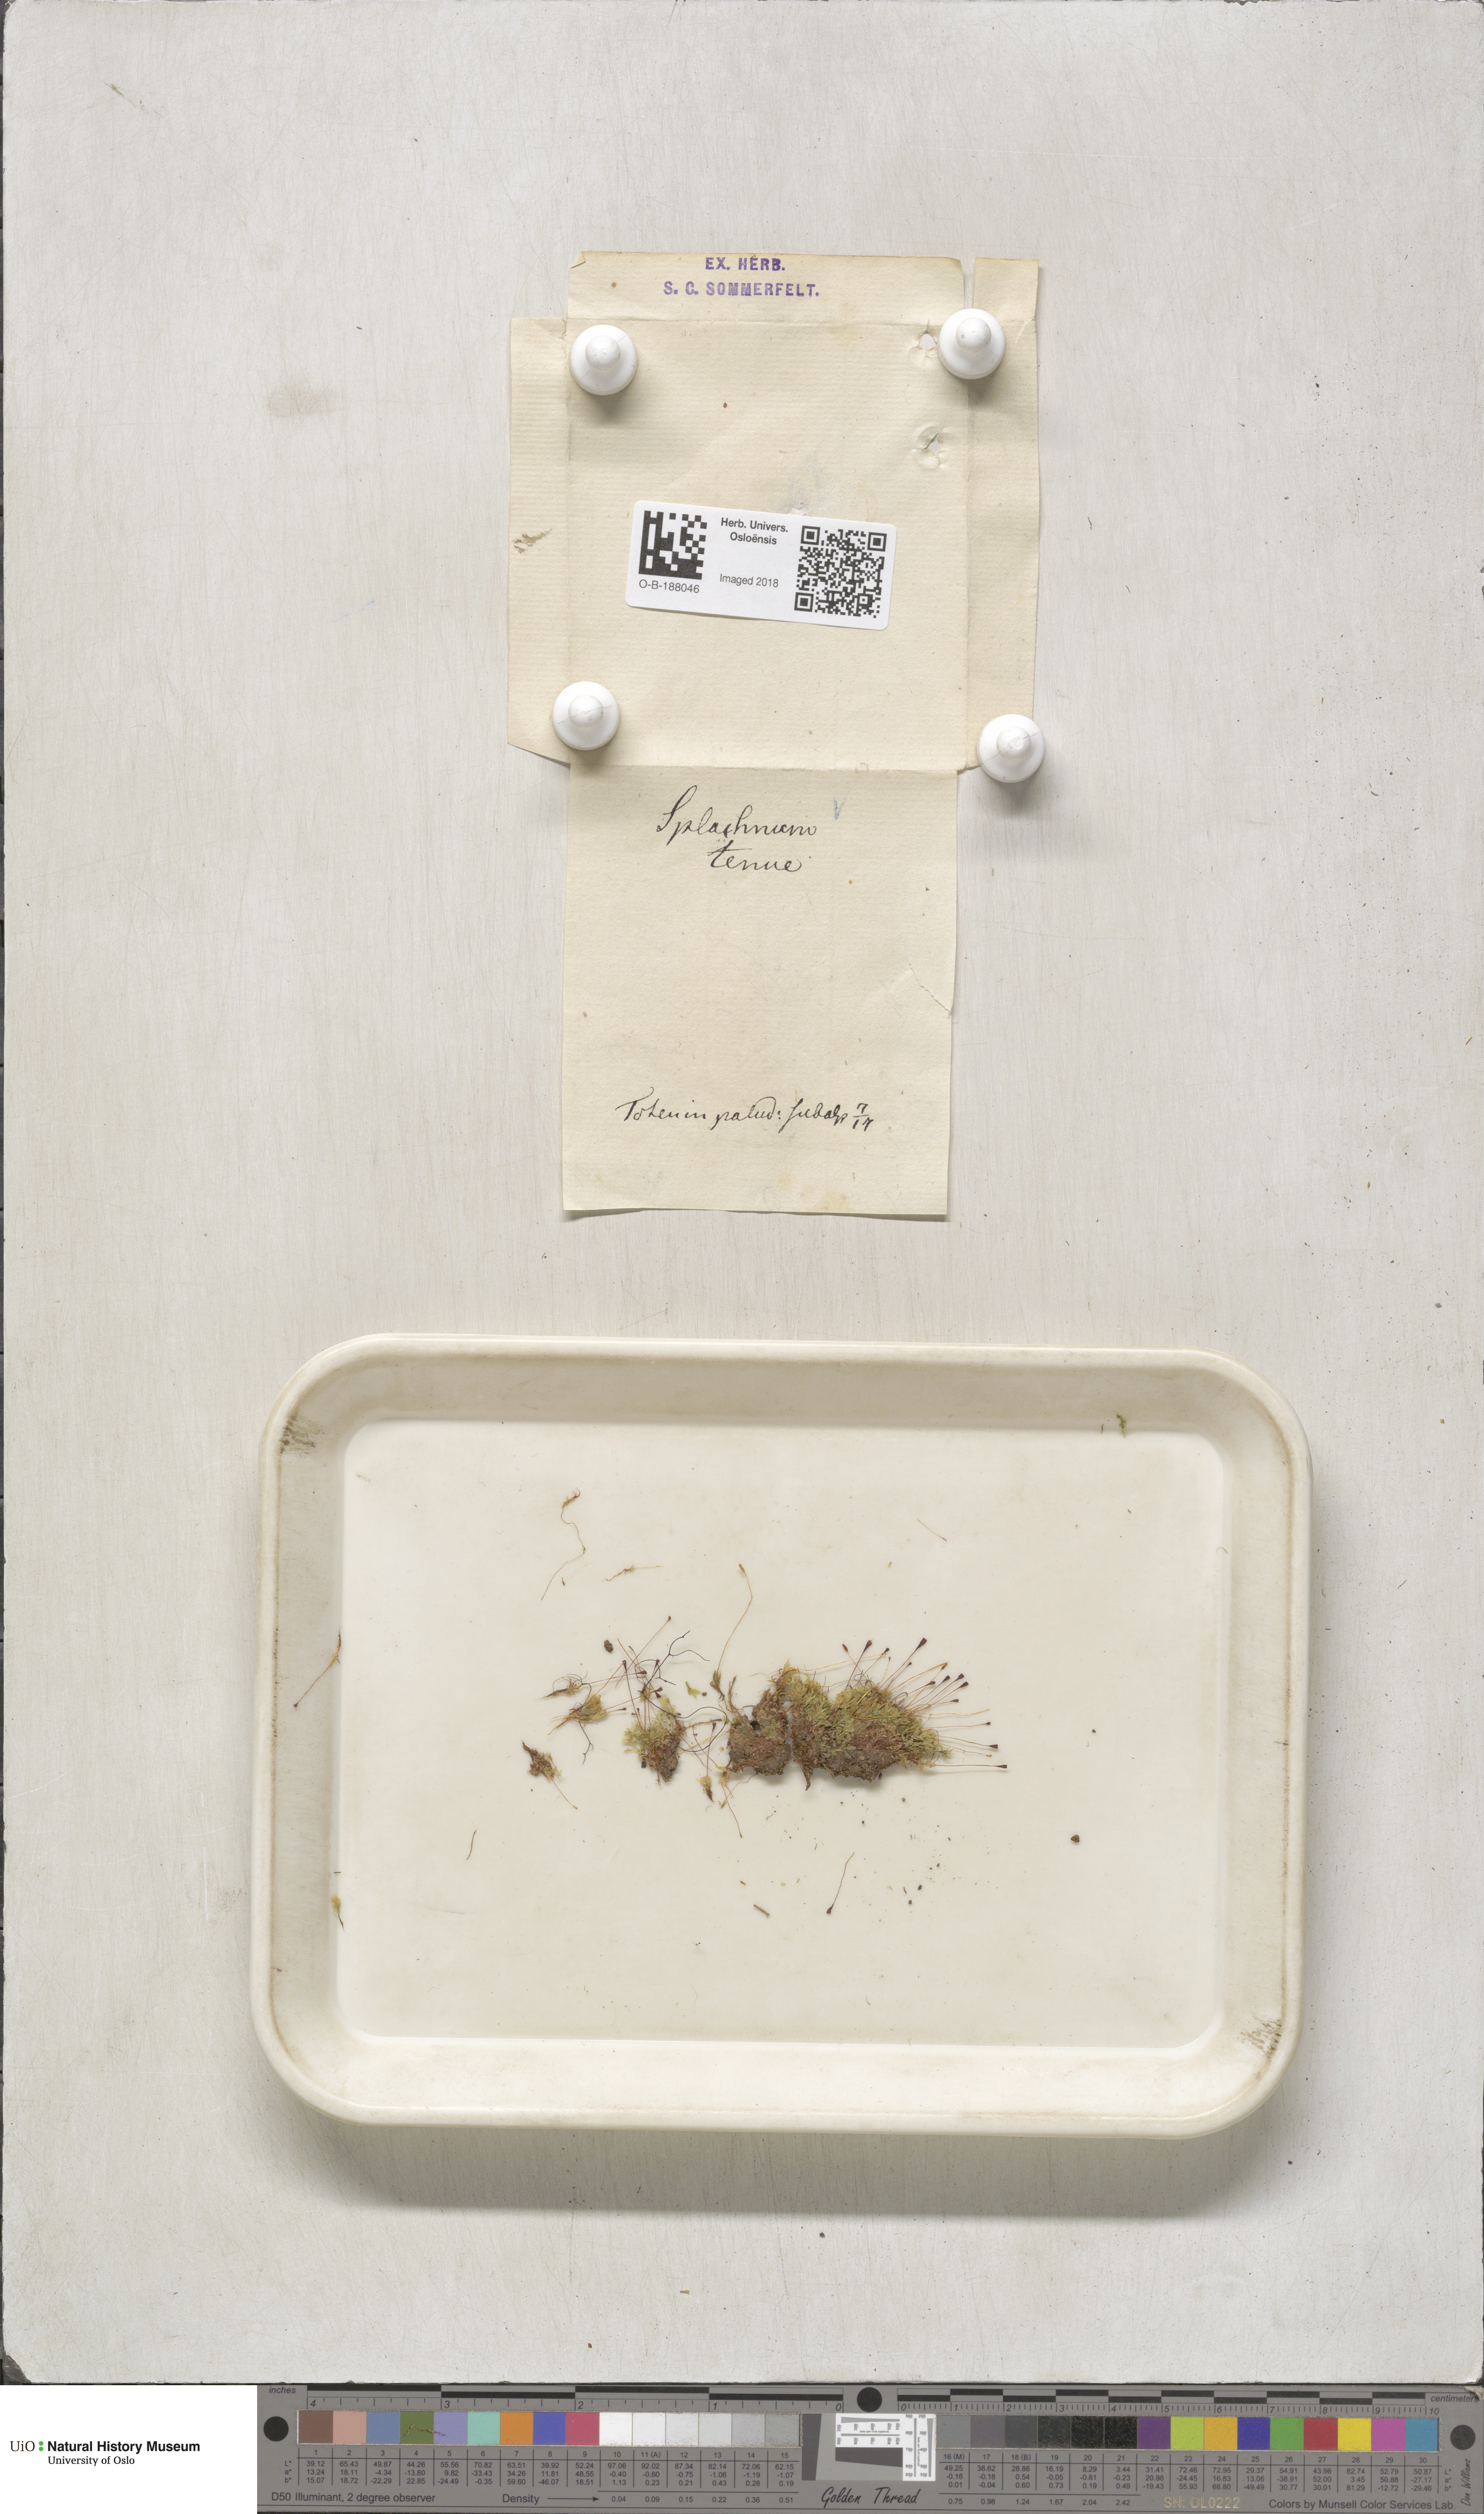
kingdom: Plantae
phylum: Bryophyta
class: Bryopsida
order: Splachnales
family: Splachnaceae
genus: Tayloria
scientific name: Tayloria tenuis
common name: Slender gland-moss
